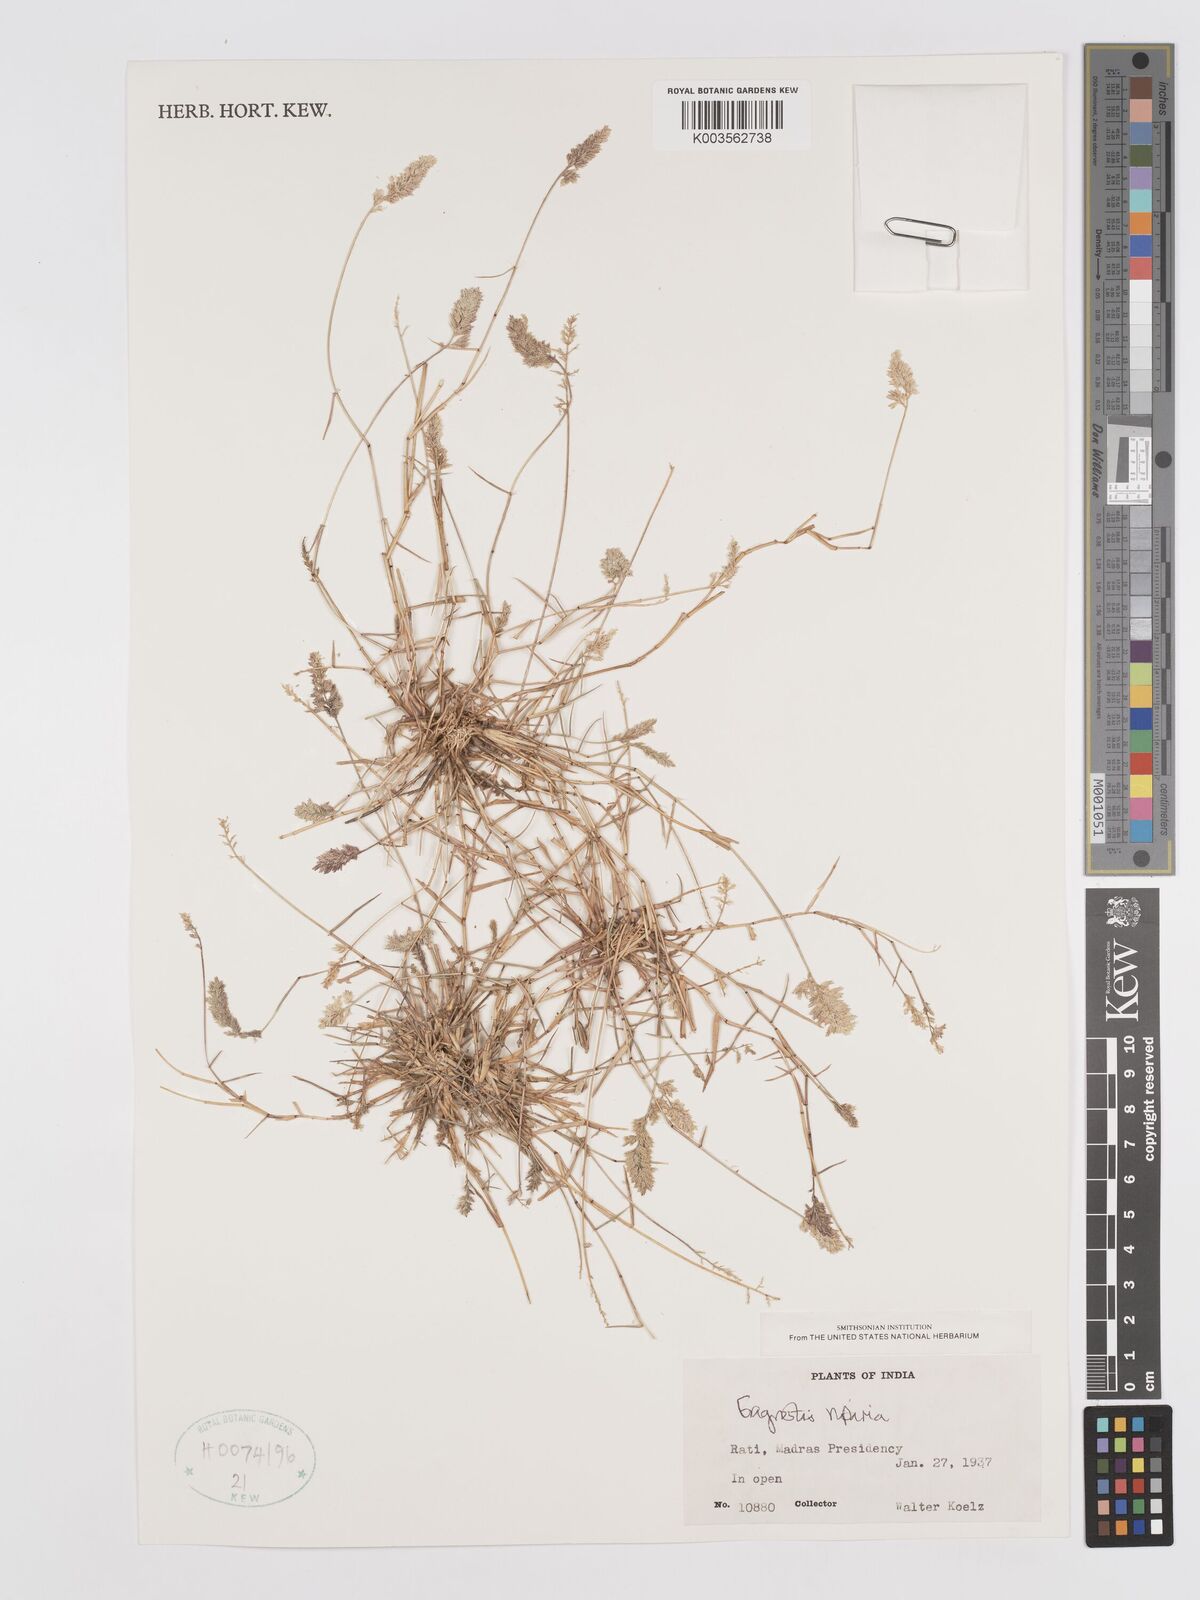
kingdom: Plantae
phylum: Tracheophyta
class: Liliopsida
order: Poales
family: Poaceae
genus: Eragrostis
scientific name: Eragrostis riparia
